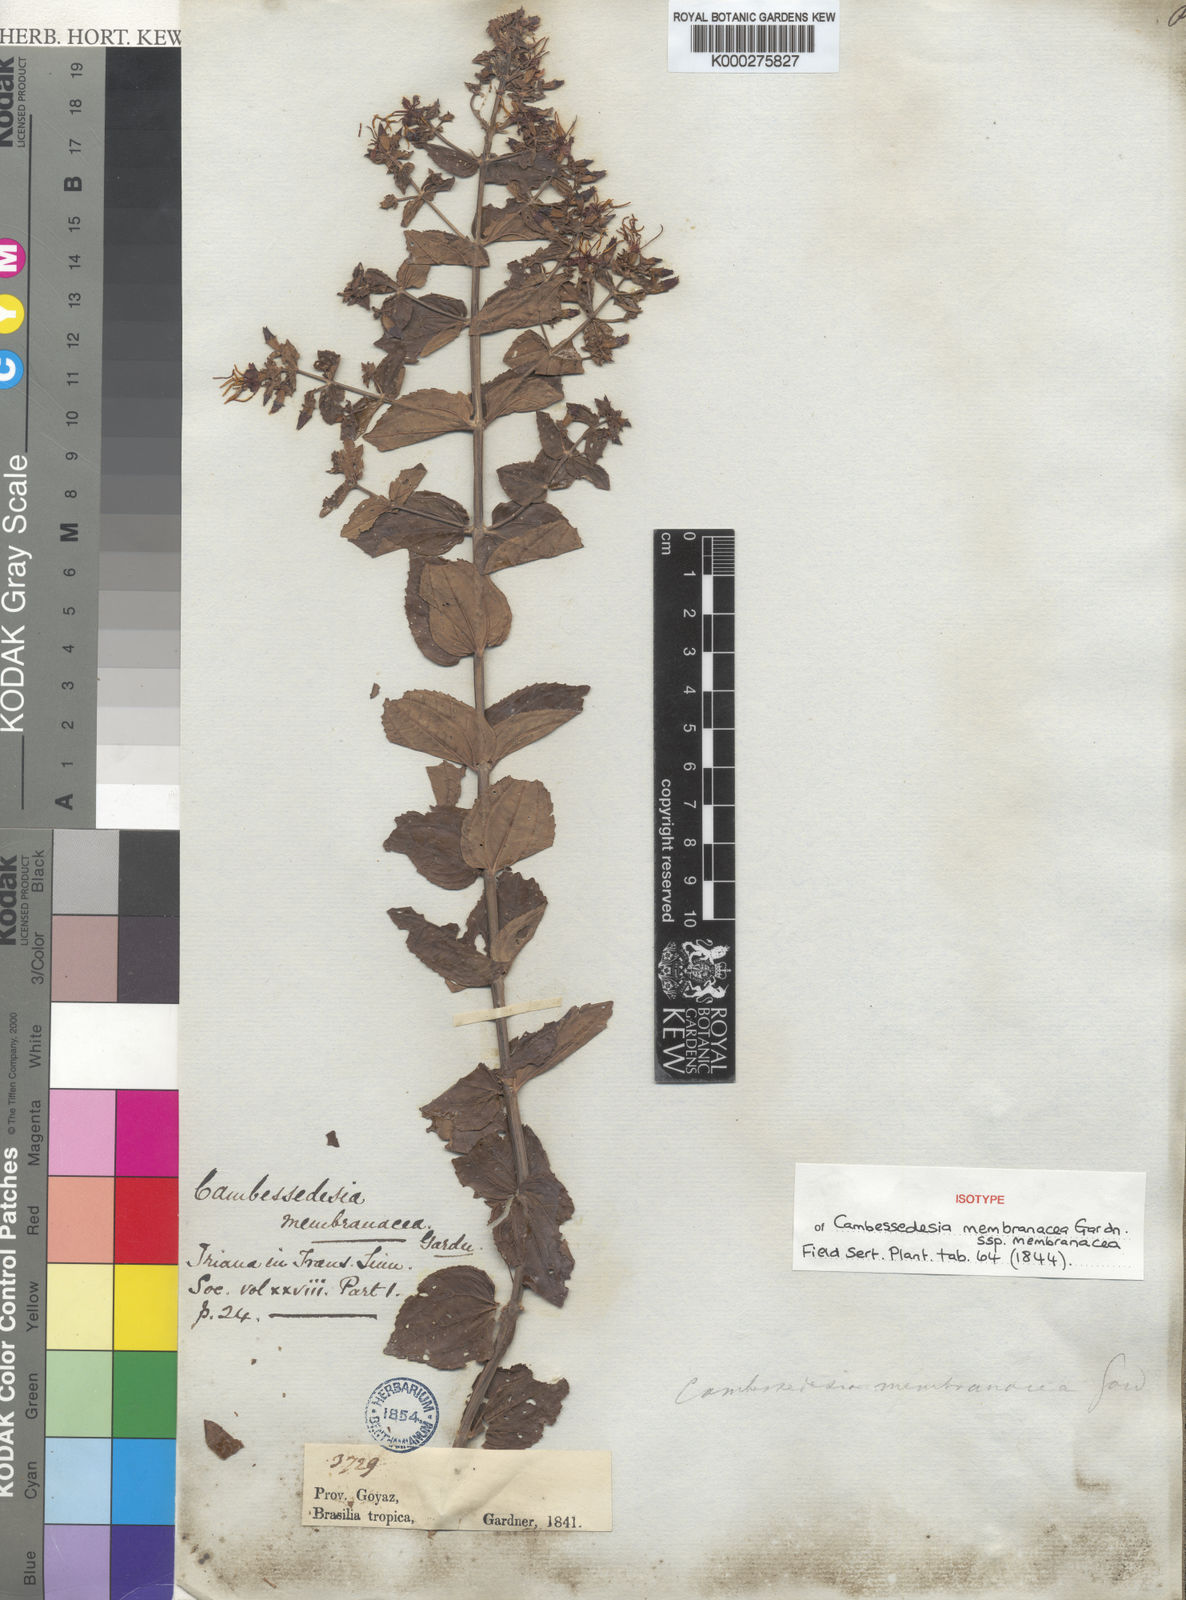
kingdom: Plantae
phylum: Tracheophyta
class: Magnoliopsida
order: Myrtales
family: Melastomataceae
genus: Cambessedesia
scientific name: Cambessedesia membranacea
